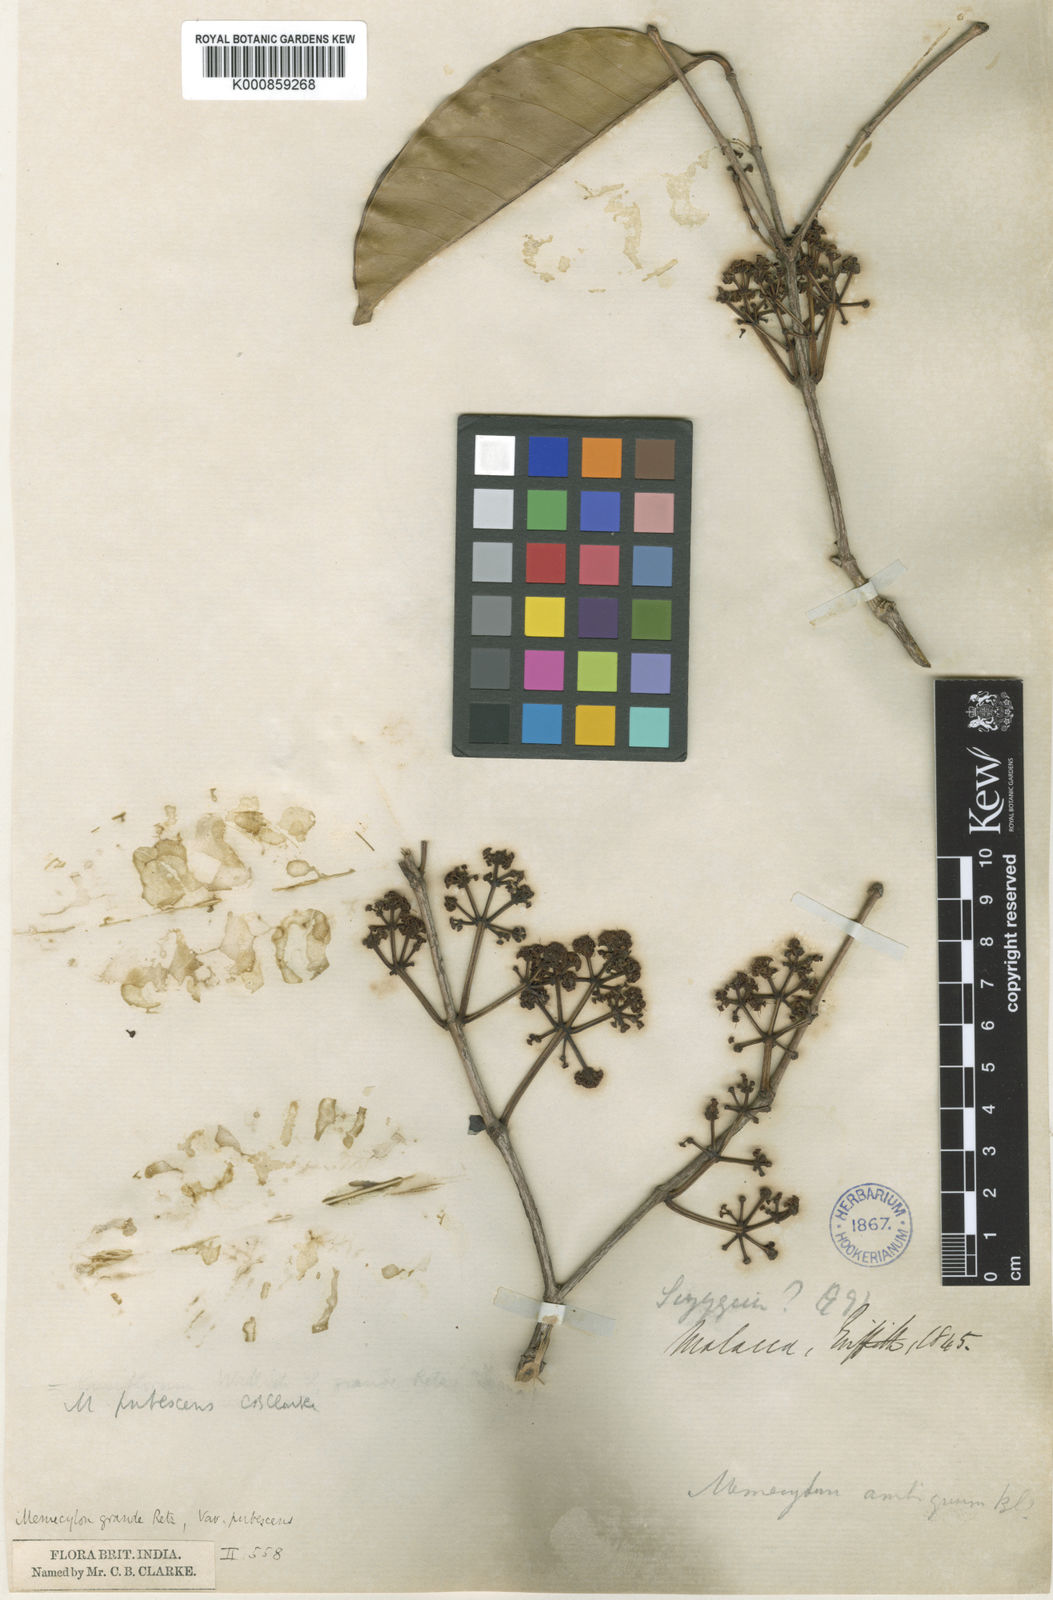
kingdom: Plantae
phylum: Tracheophyta
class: Magnoliopsida
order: Myrtales
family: Melastomataceae
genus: Memecylon
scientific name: Memecylon
